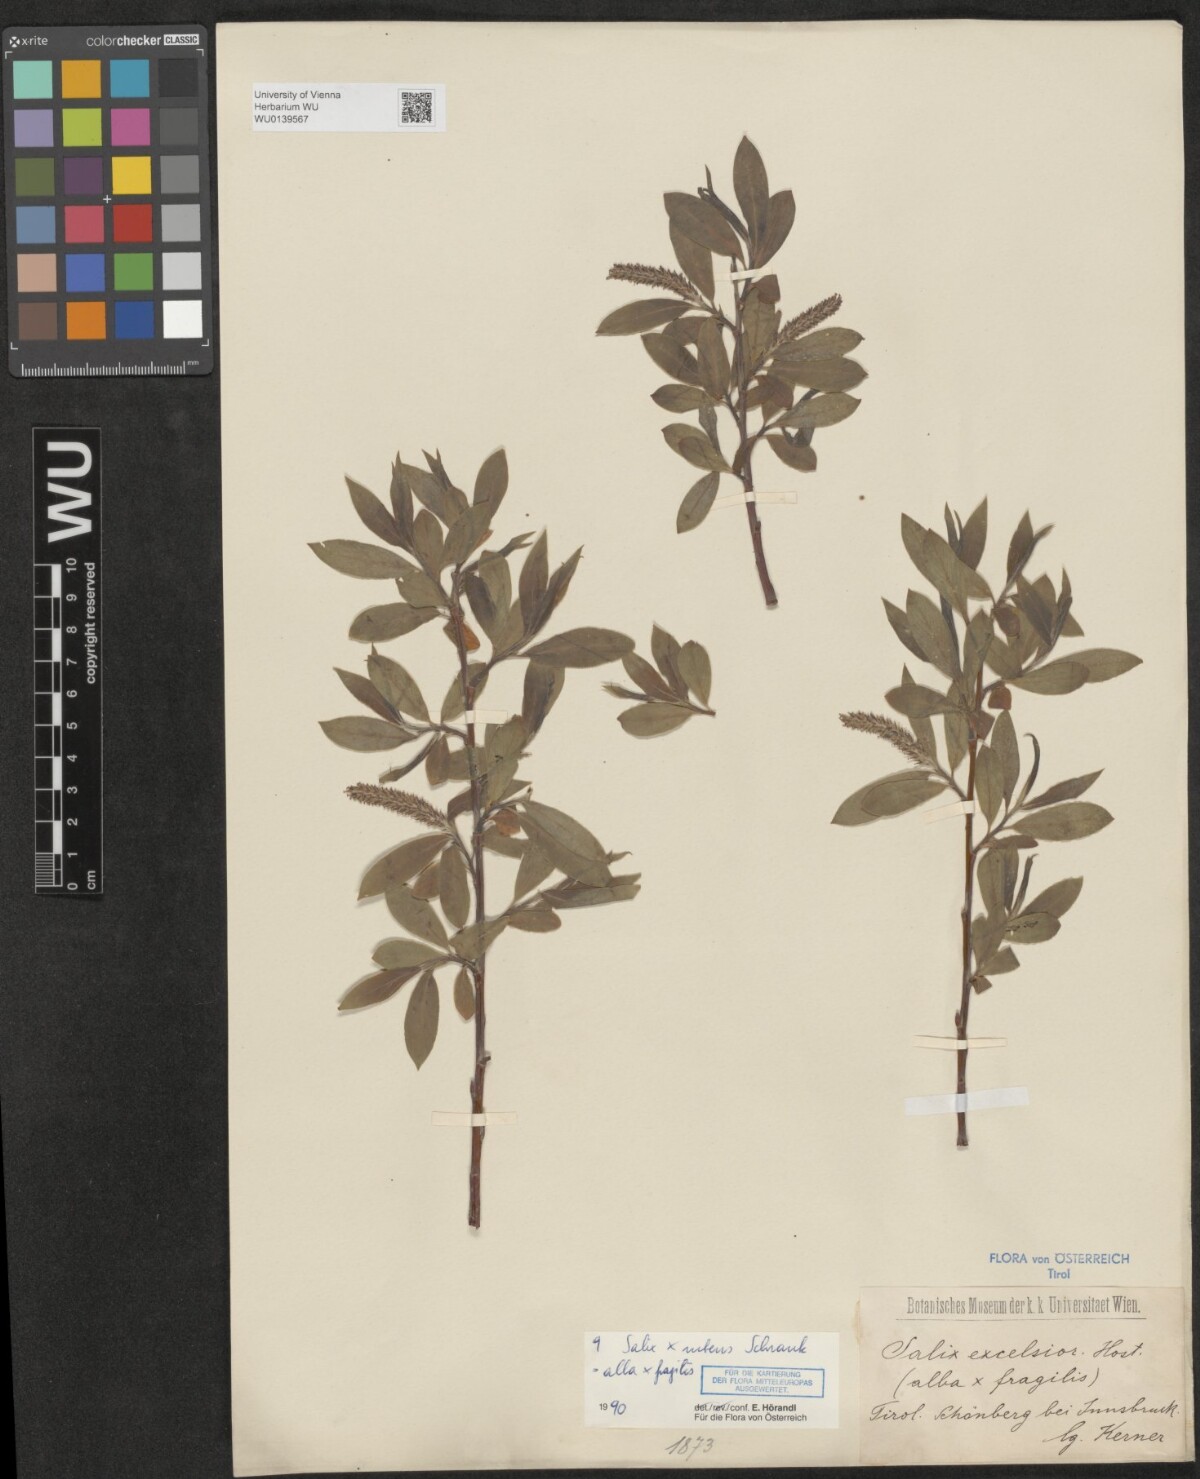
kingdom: Plantae
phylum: Tracheophyta
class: Magnoliopsida
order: Malpighiales
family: Salicaceae
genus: Salix
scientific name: Salix rubens
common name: Hybrid crack willow
